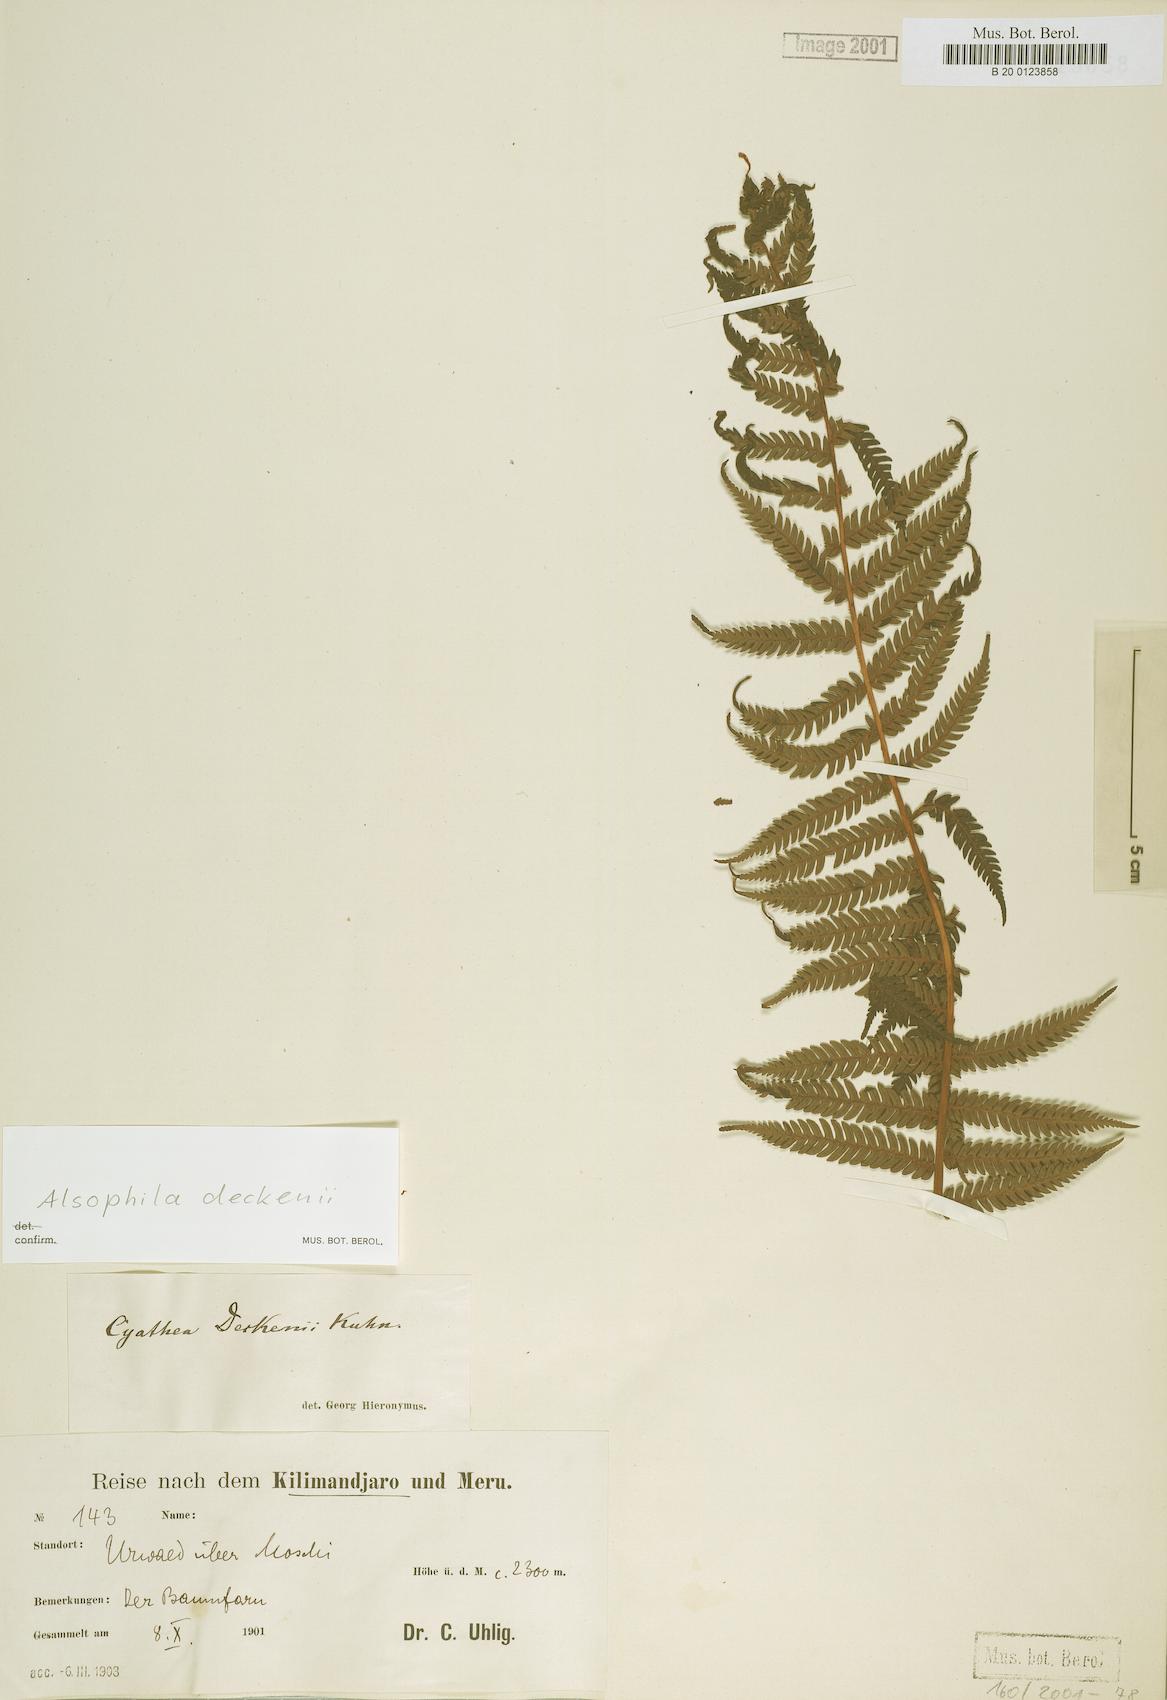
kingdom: Plantae
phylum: Tracheophyta
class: Polypodiopsida
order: Cyatheales
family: Cyatheaceae
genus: Alsophila
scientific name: Alsophila deckenii
